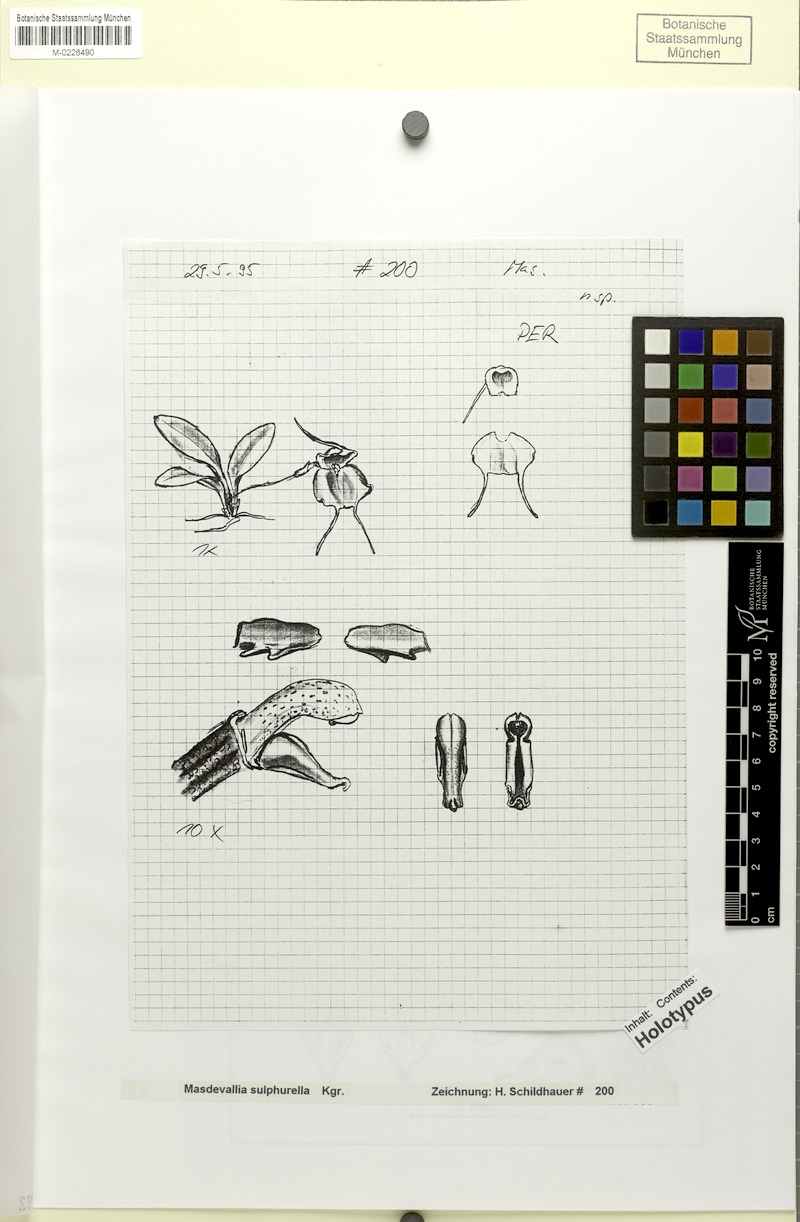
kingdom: Plantae
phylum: Tracheophyta
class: Liliopsida
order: Asparagales
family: Orchidaceae
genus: Masdevallia
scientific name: Masdevallia sulphurella
